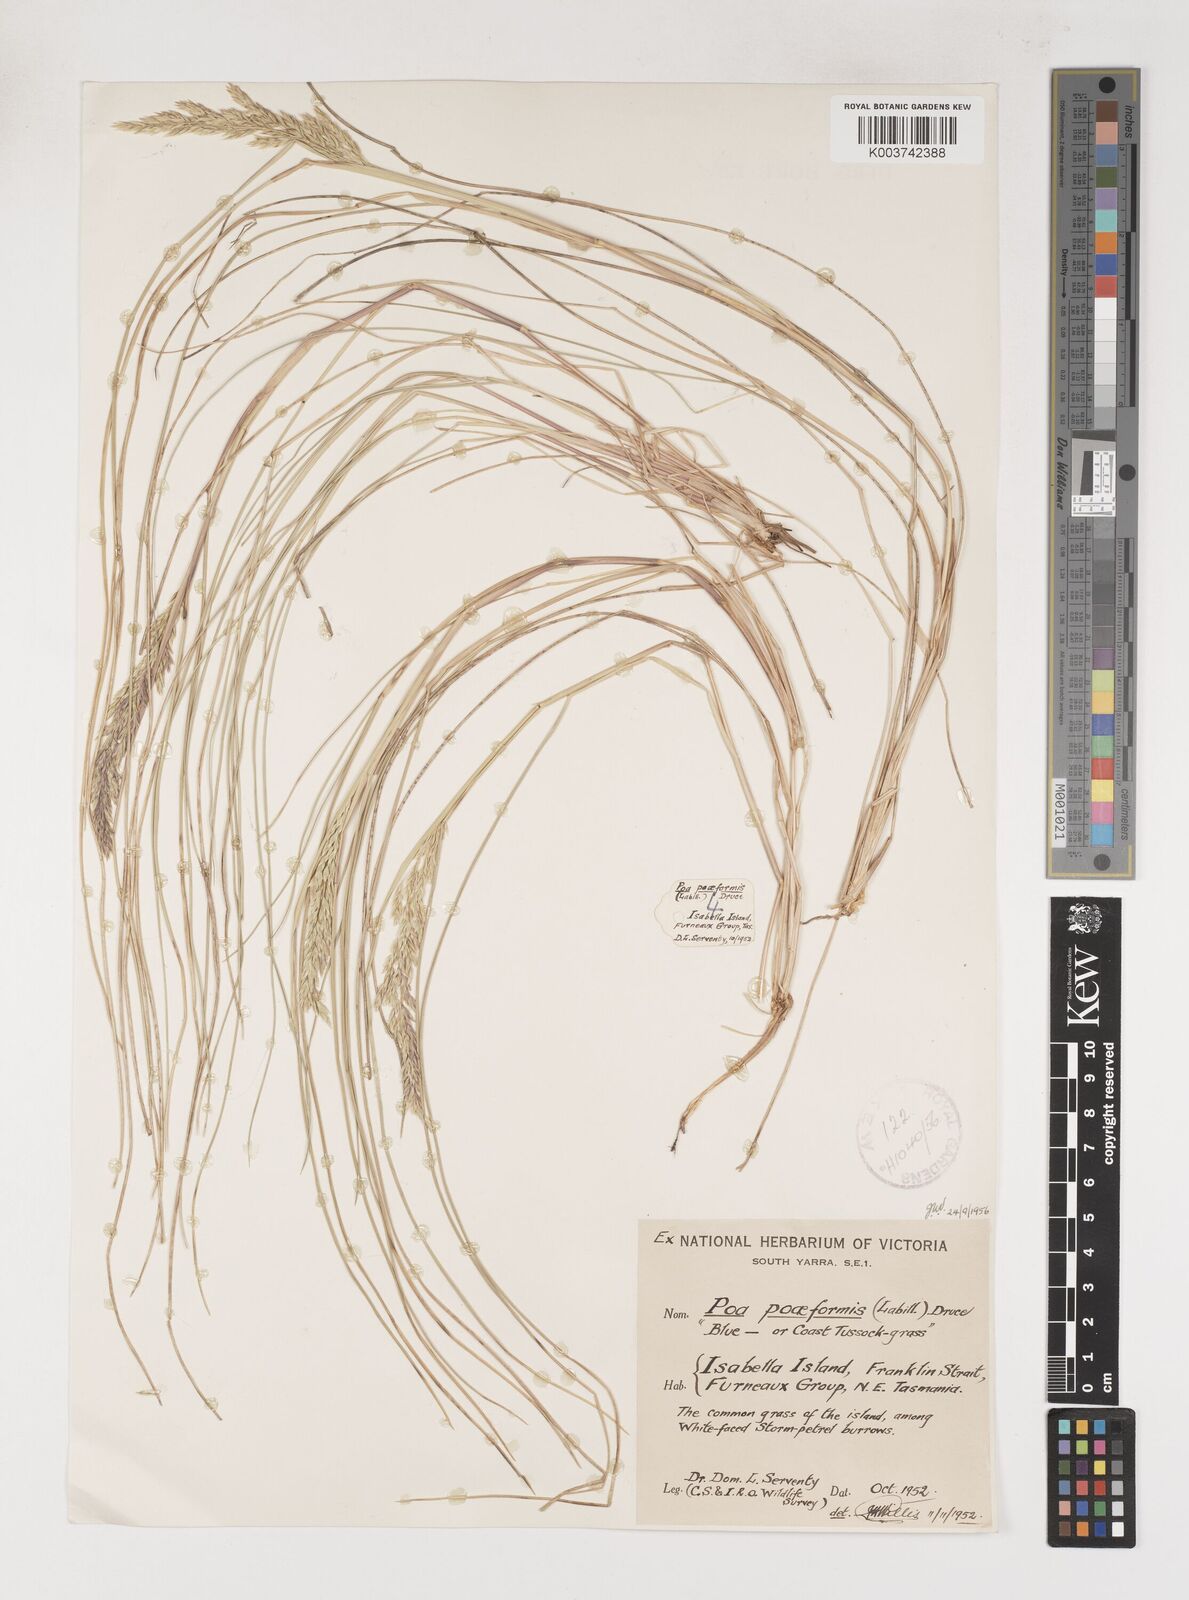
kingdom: Plantae
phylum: Tracheophyta
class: Liliopsida
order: Poales
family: Poaceae
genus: Poa
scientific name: Poa poiformis
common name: Tussock poa
